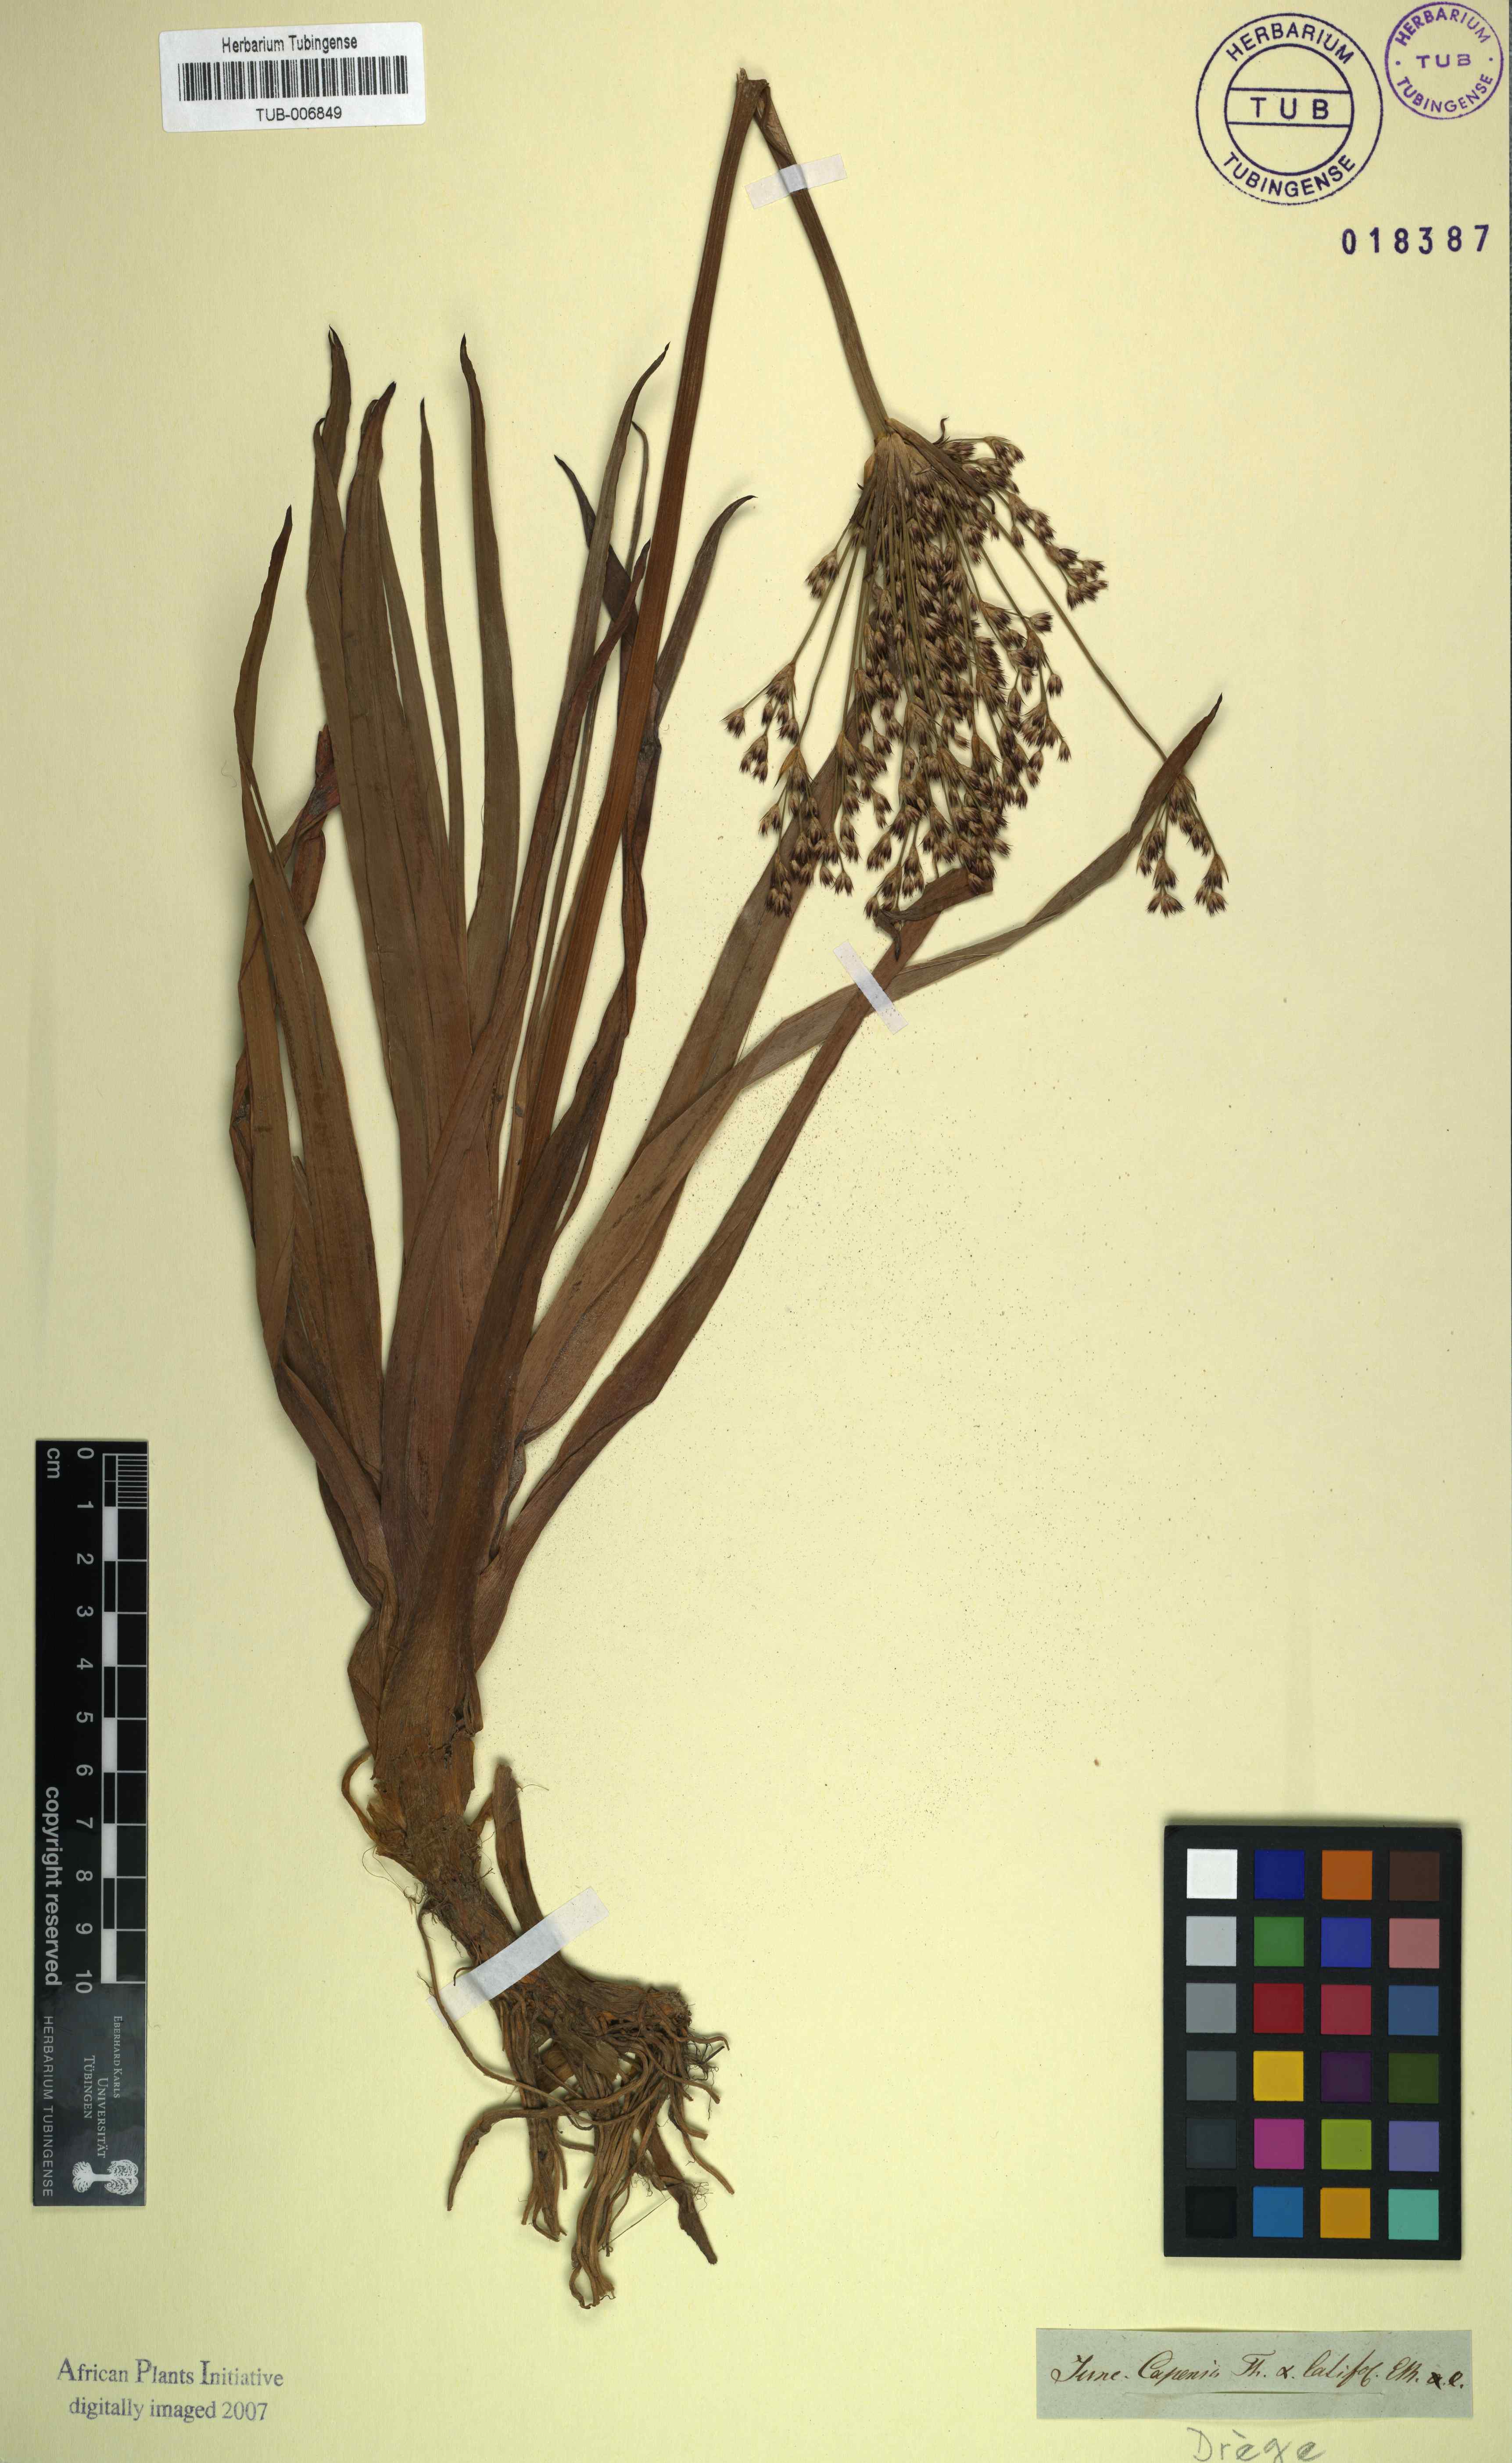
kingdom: Plantae
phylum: Tracheophyta
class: Liliopsida
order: Poales
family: Juncaceae
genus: Juncus
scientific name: Juncus capensis
